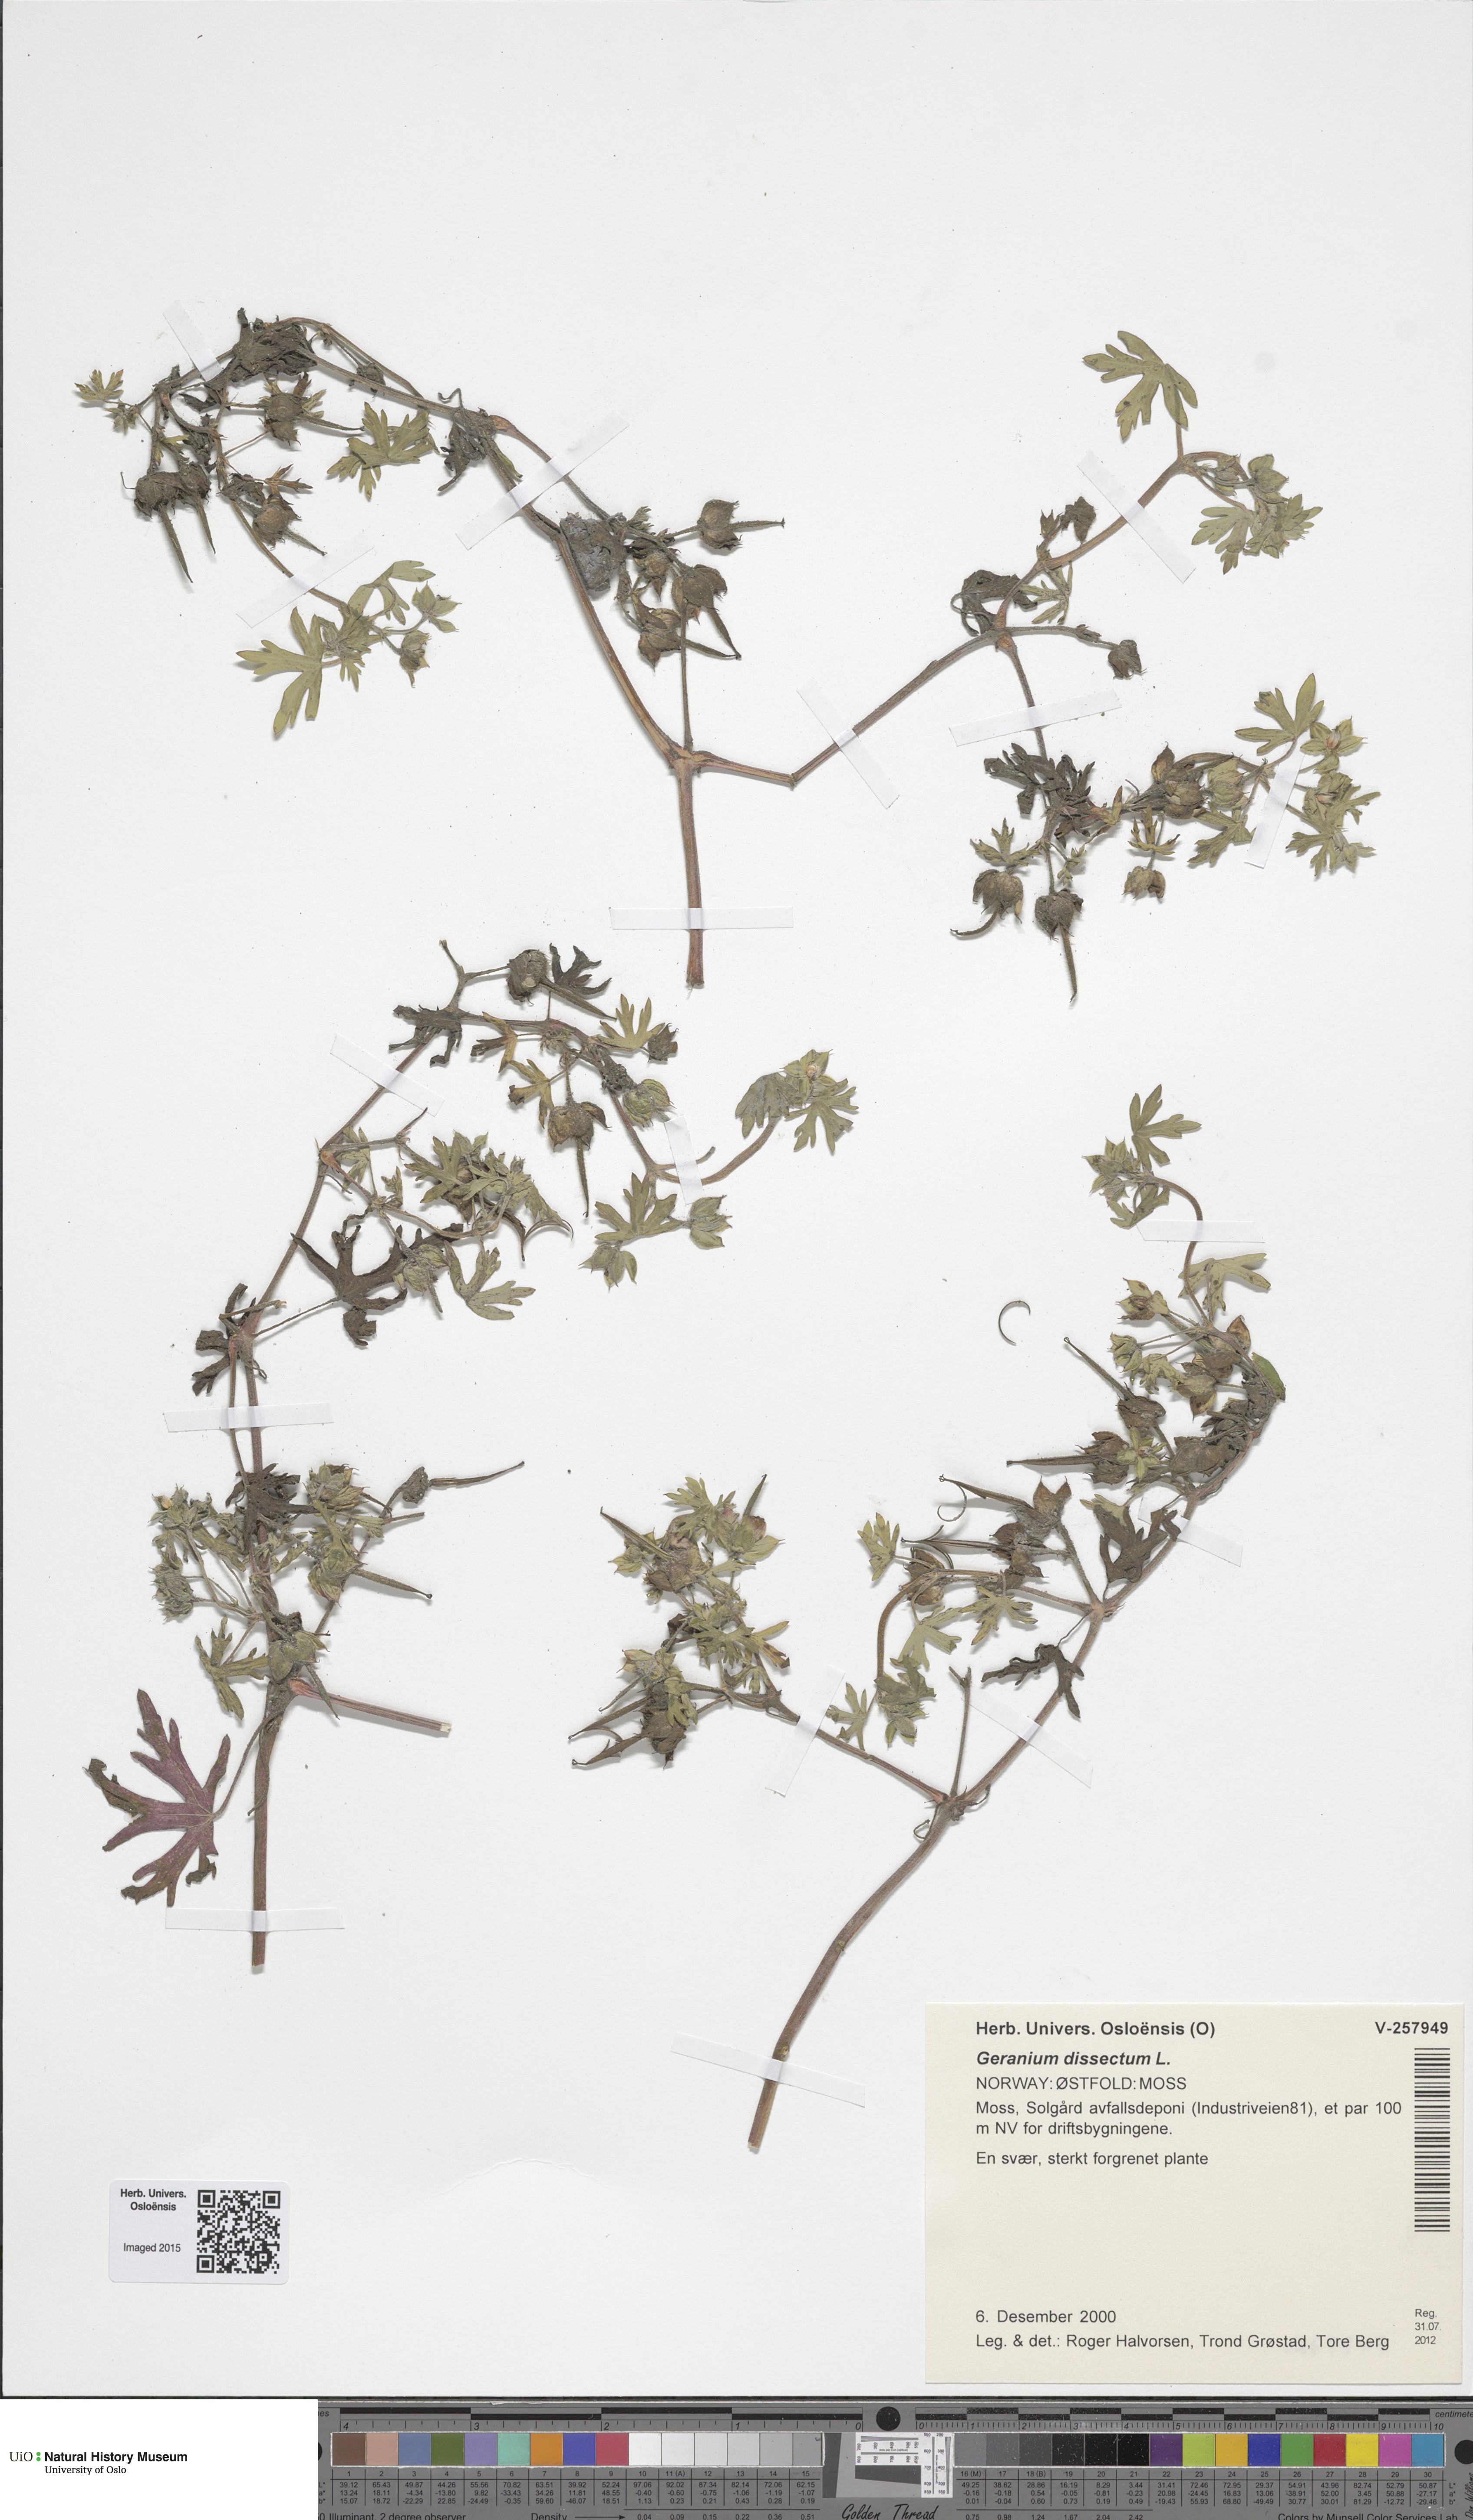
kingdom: Plantae
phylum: Tracheophyta
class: Magnoliopsida
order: Geraniales
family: Geraniaceae
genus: Geranium
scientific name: Geranium dissectum
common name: Cut-leaved crane's-bill
